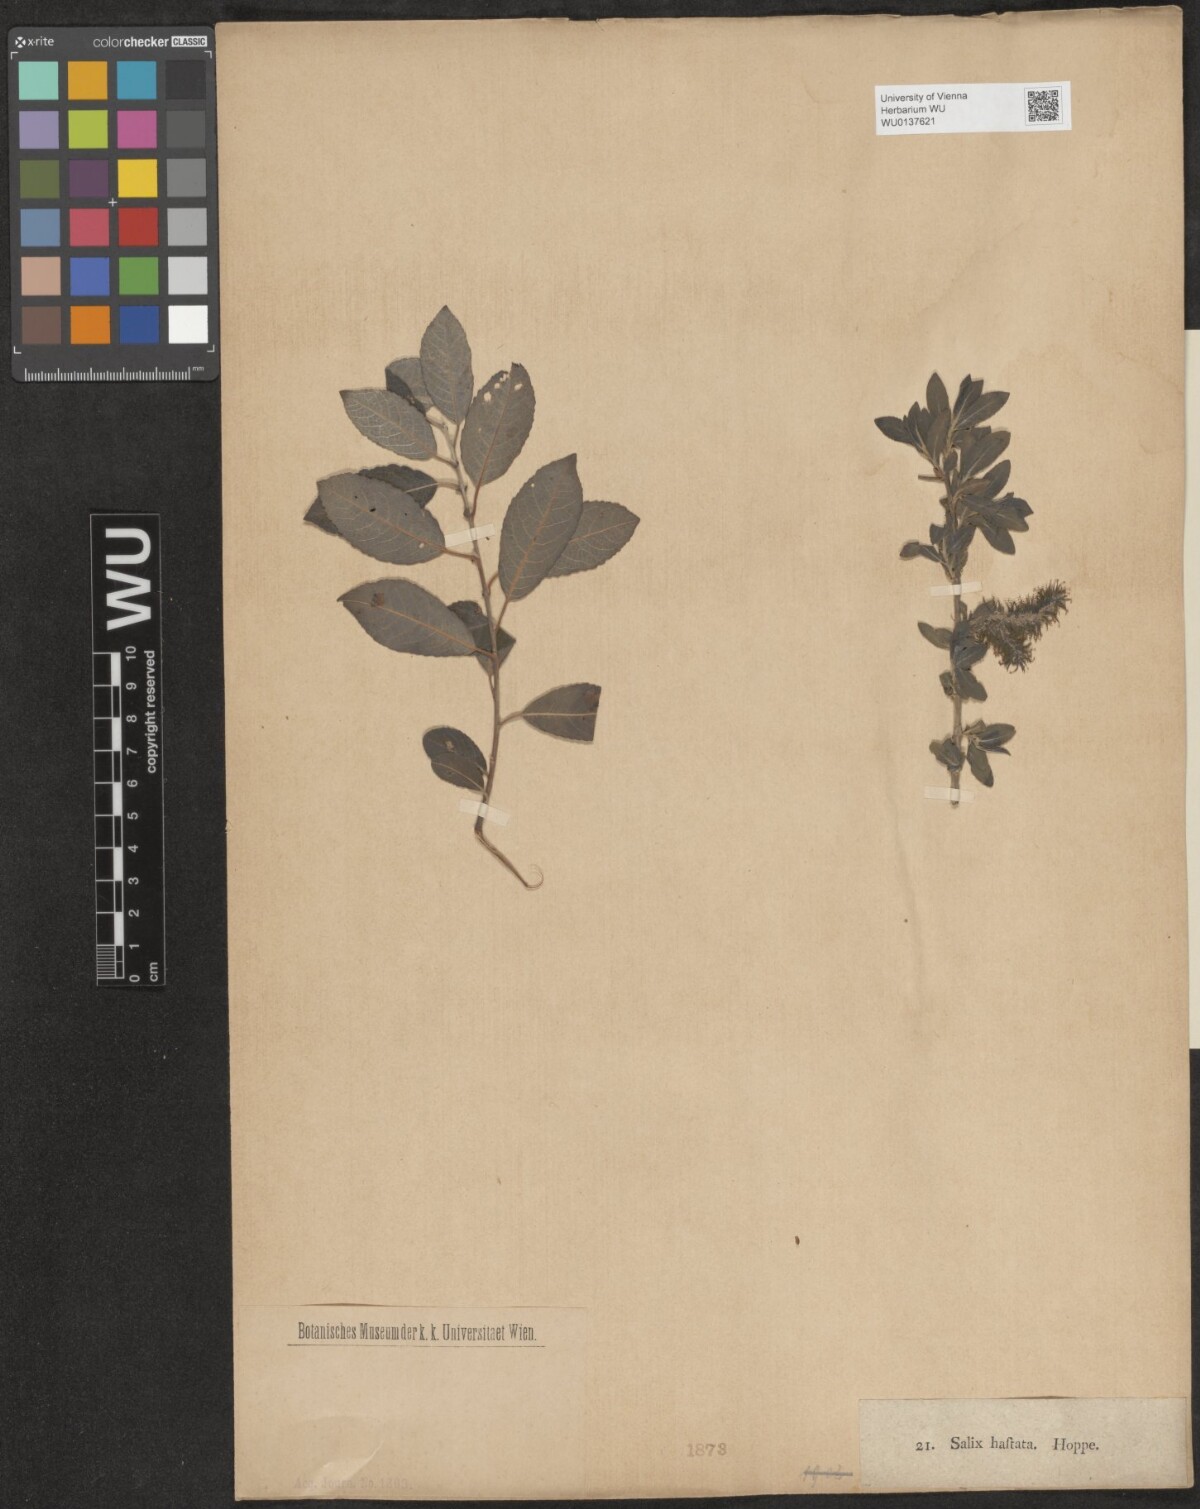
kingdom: Plantae
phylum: Tracheophyta
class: Magnoliopsida
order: Malpighiales
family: Salicaceae
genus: Salix
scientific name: Salix hastata
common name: Halberd willow
